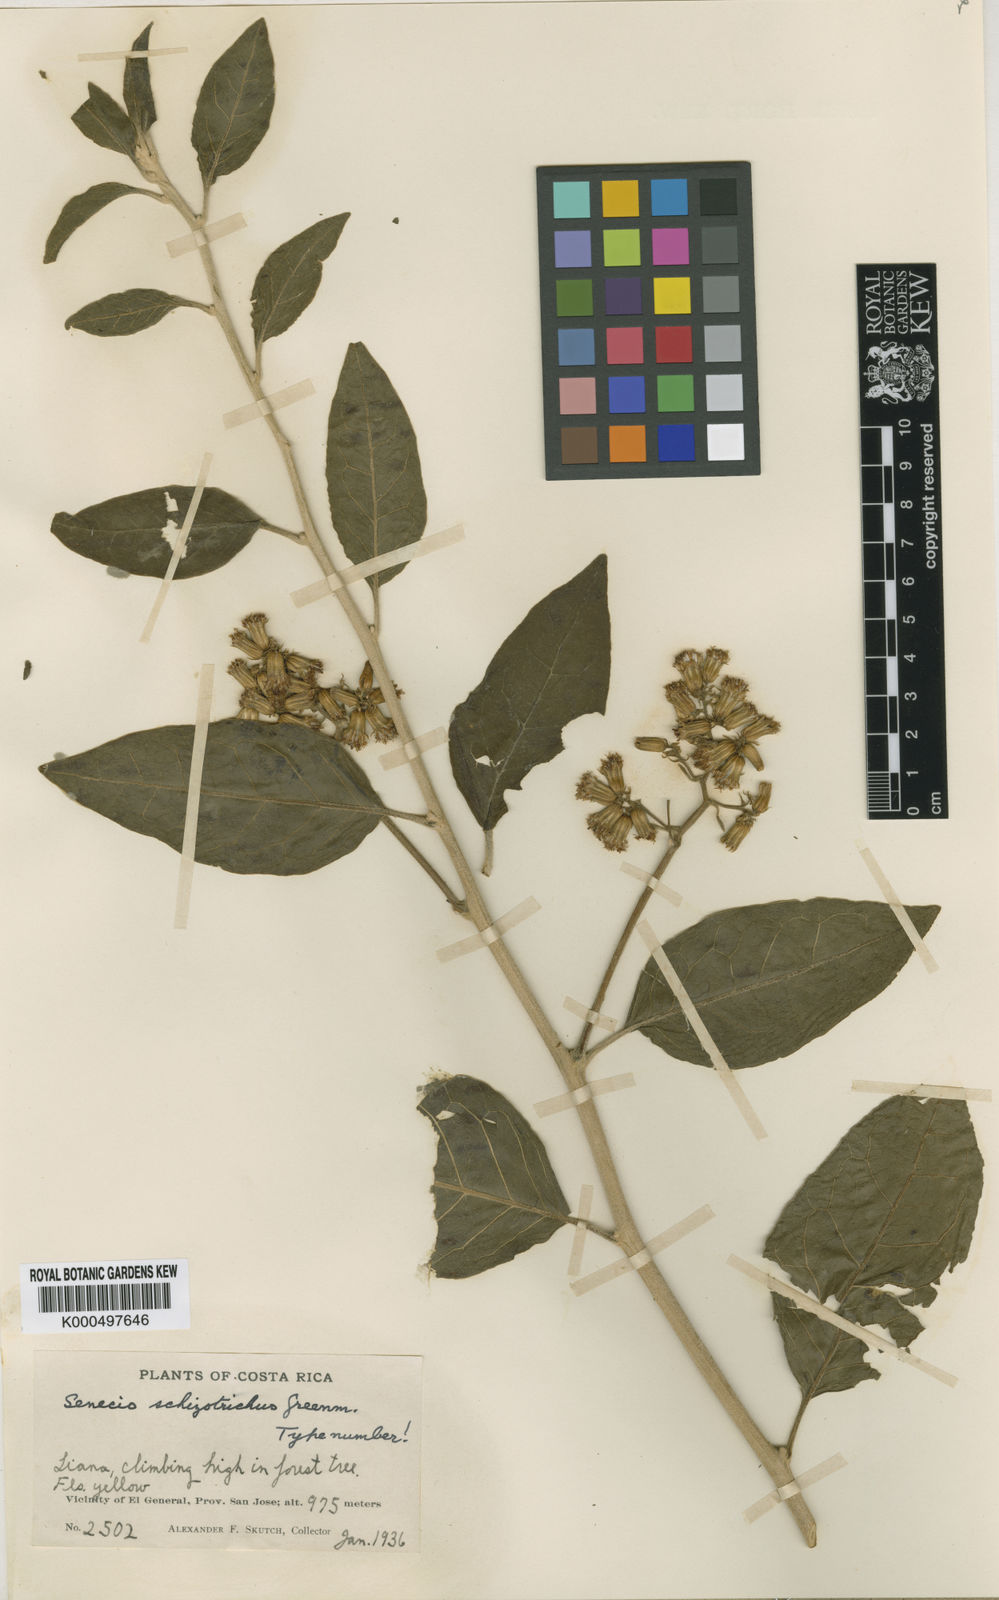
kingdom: Plantae
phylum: Tracheophyta
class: Magnoliopsida
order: Asterales
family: Asteraceae
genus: Dresslerothamnus
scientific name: Dresslerothamnus schizotrichus
